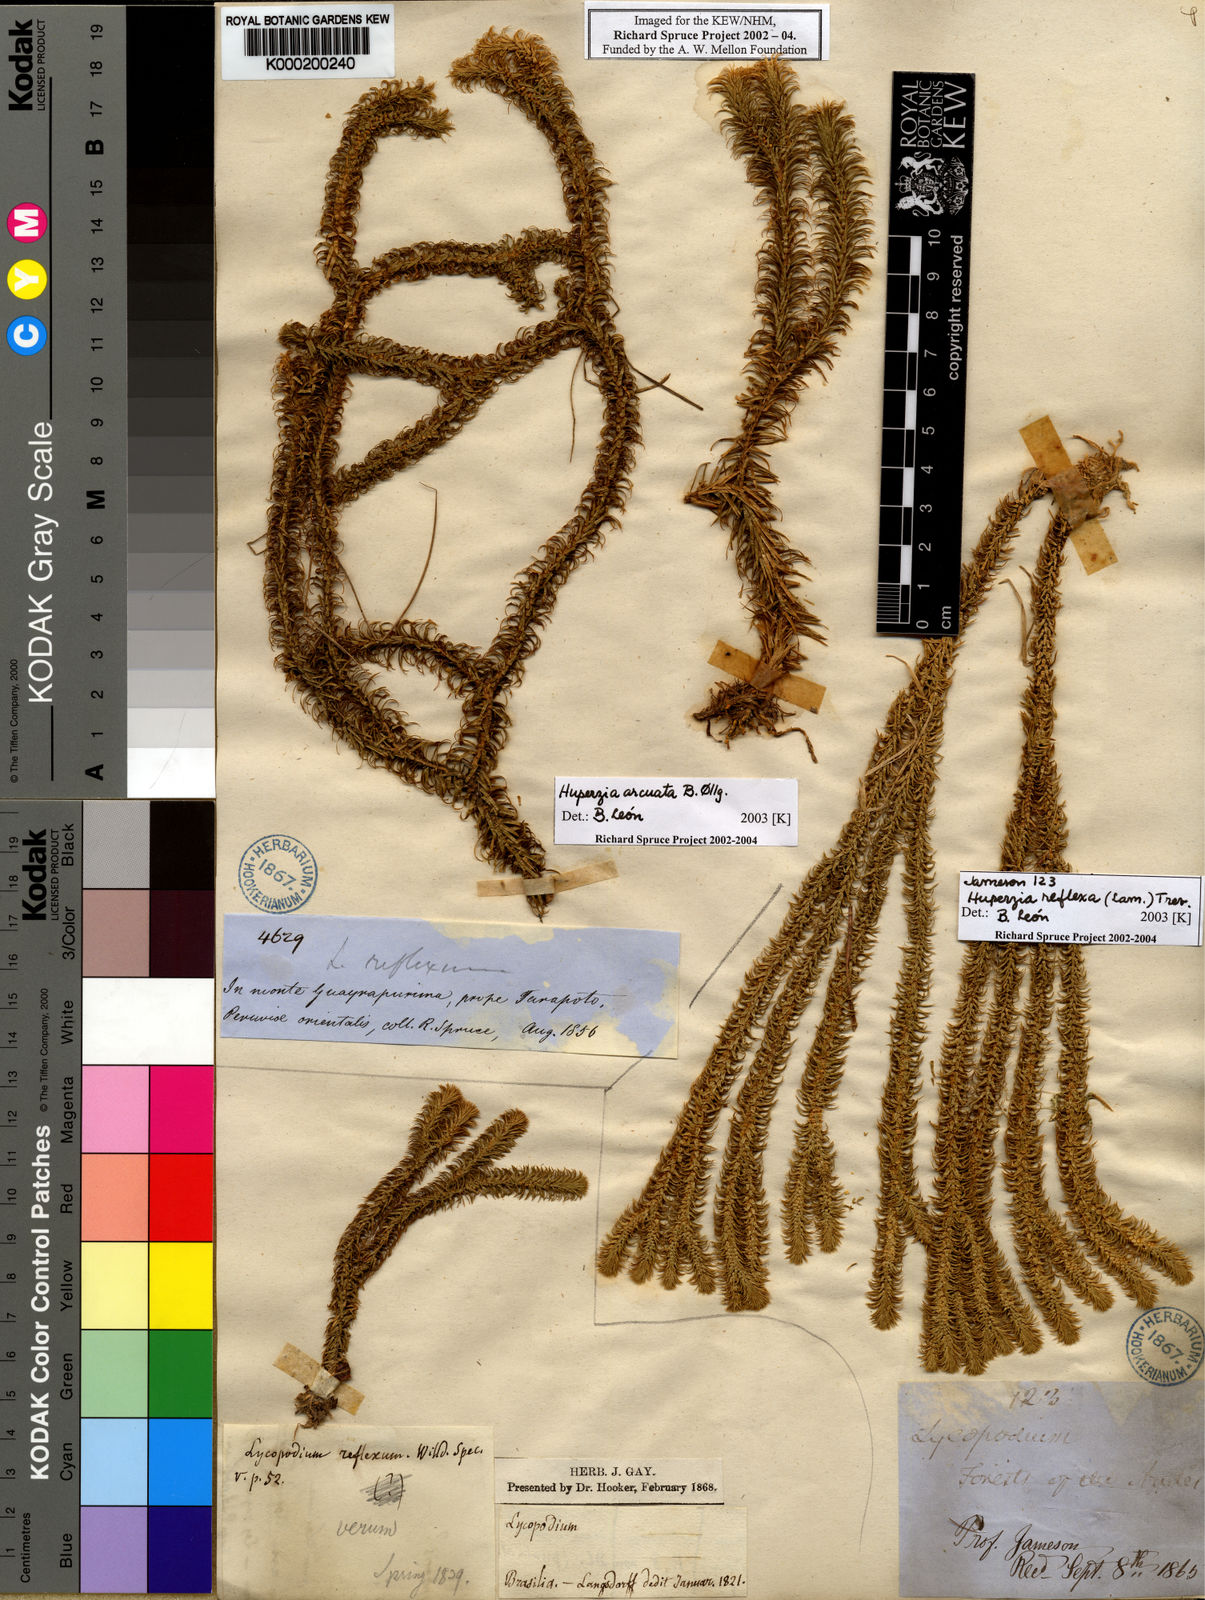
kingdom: Plantae
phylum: Tracheophyta
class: Lycopodiopsida
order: Lycopodiales
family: Lycopodiaceae
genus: Huperzia
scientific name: Huperzia
